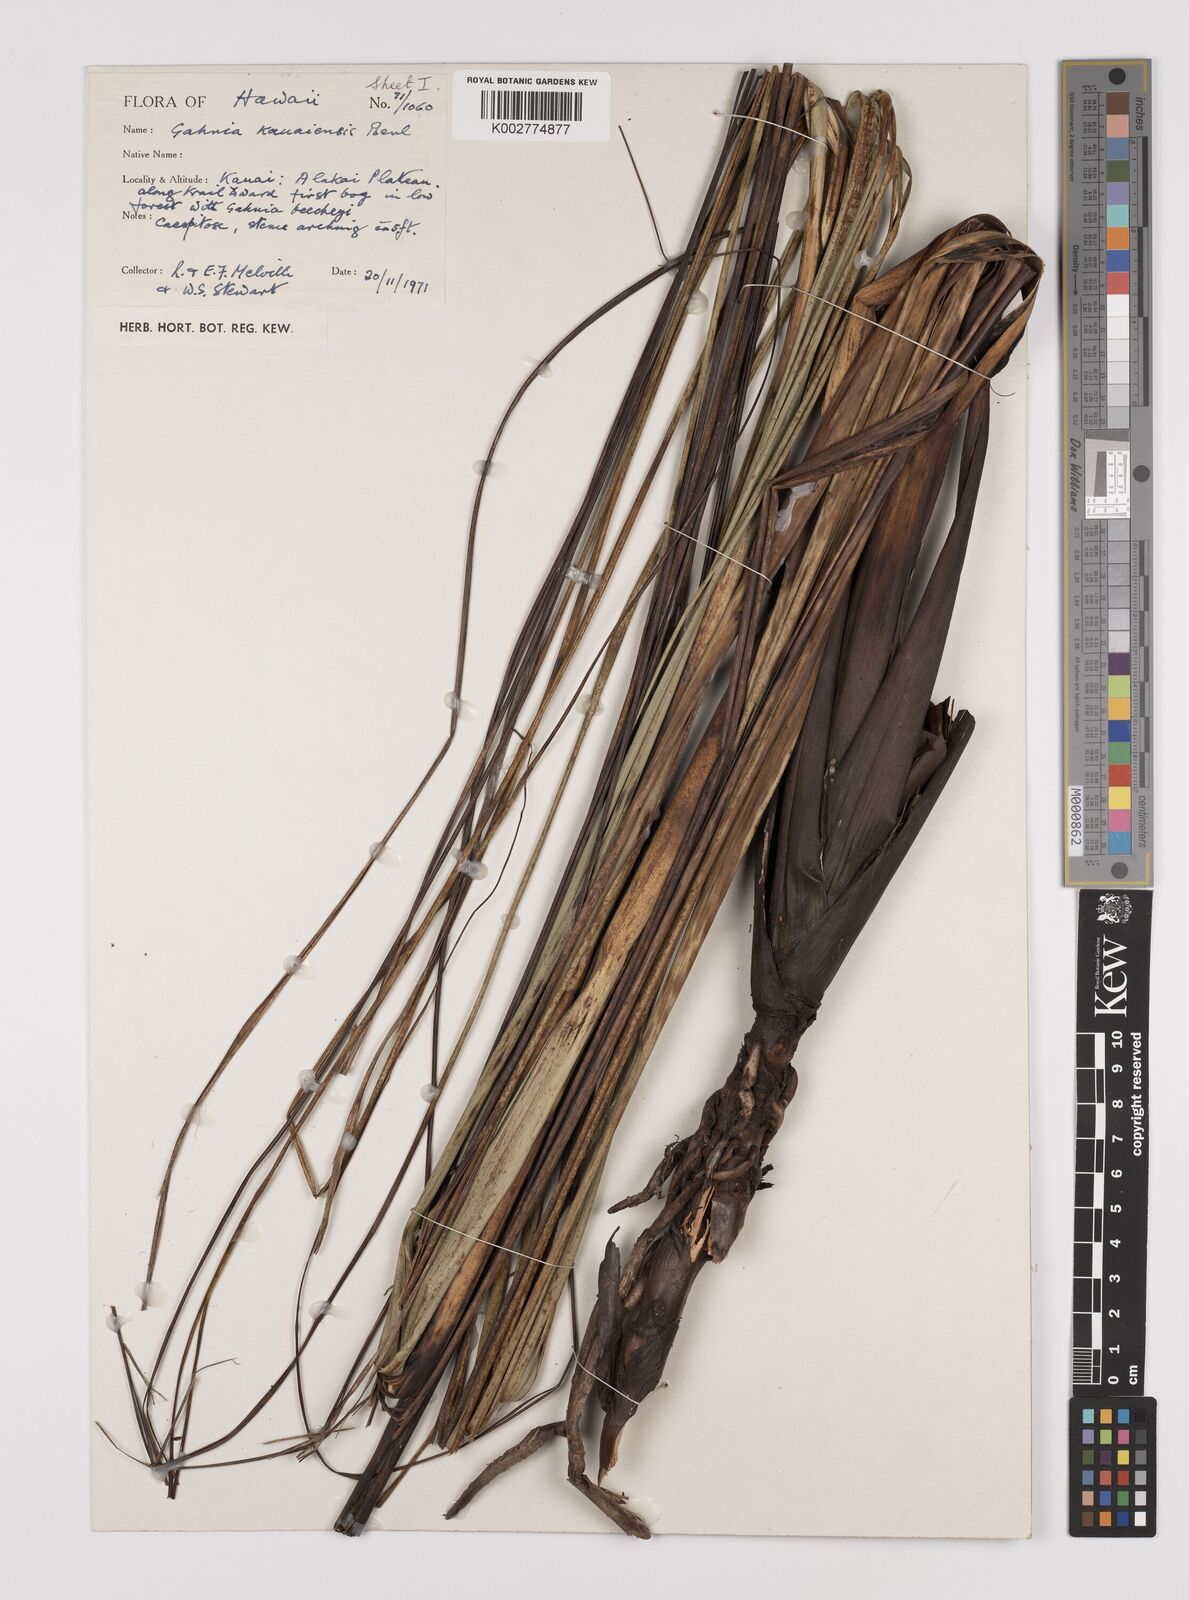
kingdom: Plantae
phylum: Tracheophyta
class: Liliopsida
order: Poales
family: Cyperaceae
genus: Gahnia
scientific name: Gahnia vitiensis
